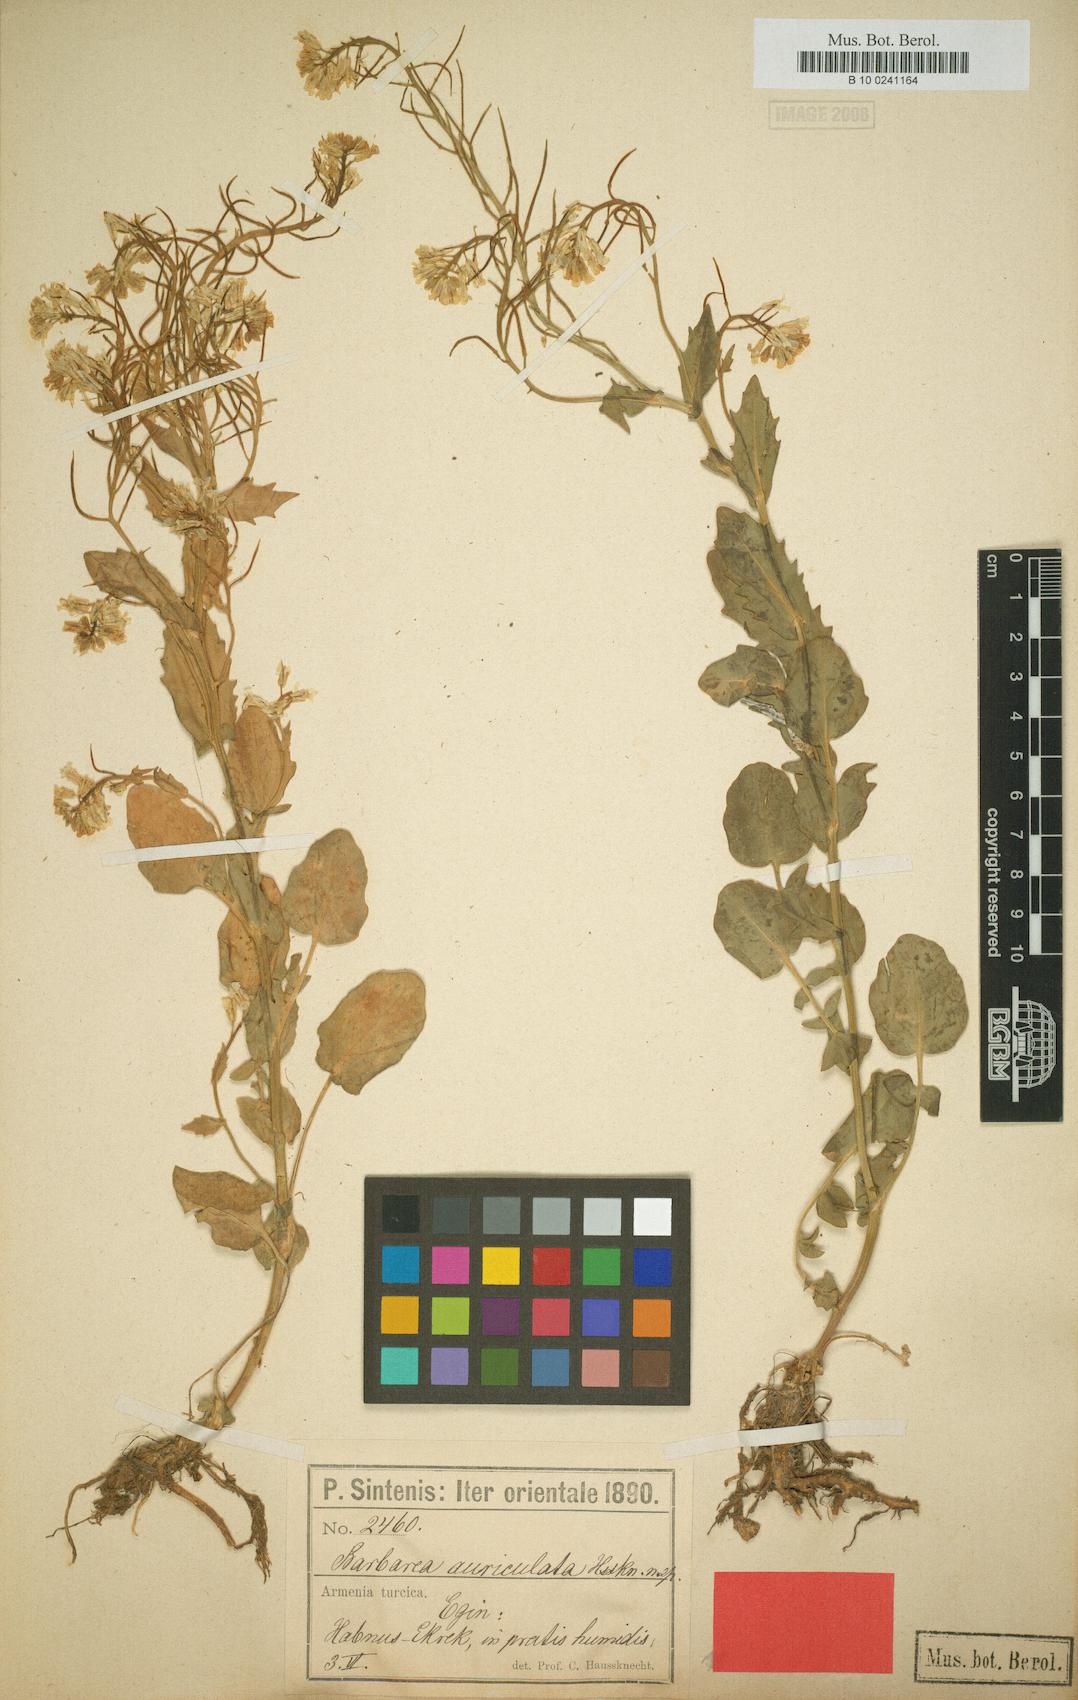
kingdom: Plantae
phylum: Tracheophyta
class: Magnoliopsida
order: Brassicales
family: Brassicaceae
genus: Barbarea
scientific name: Barbarea auriculata
